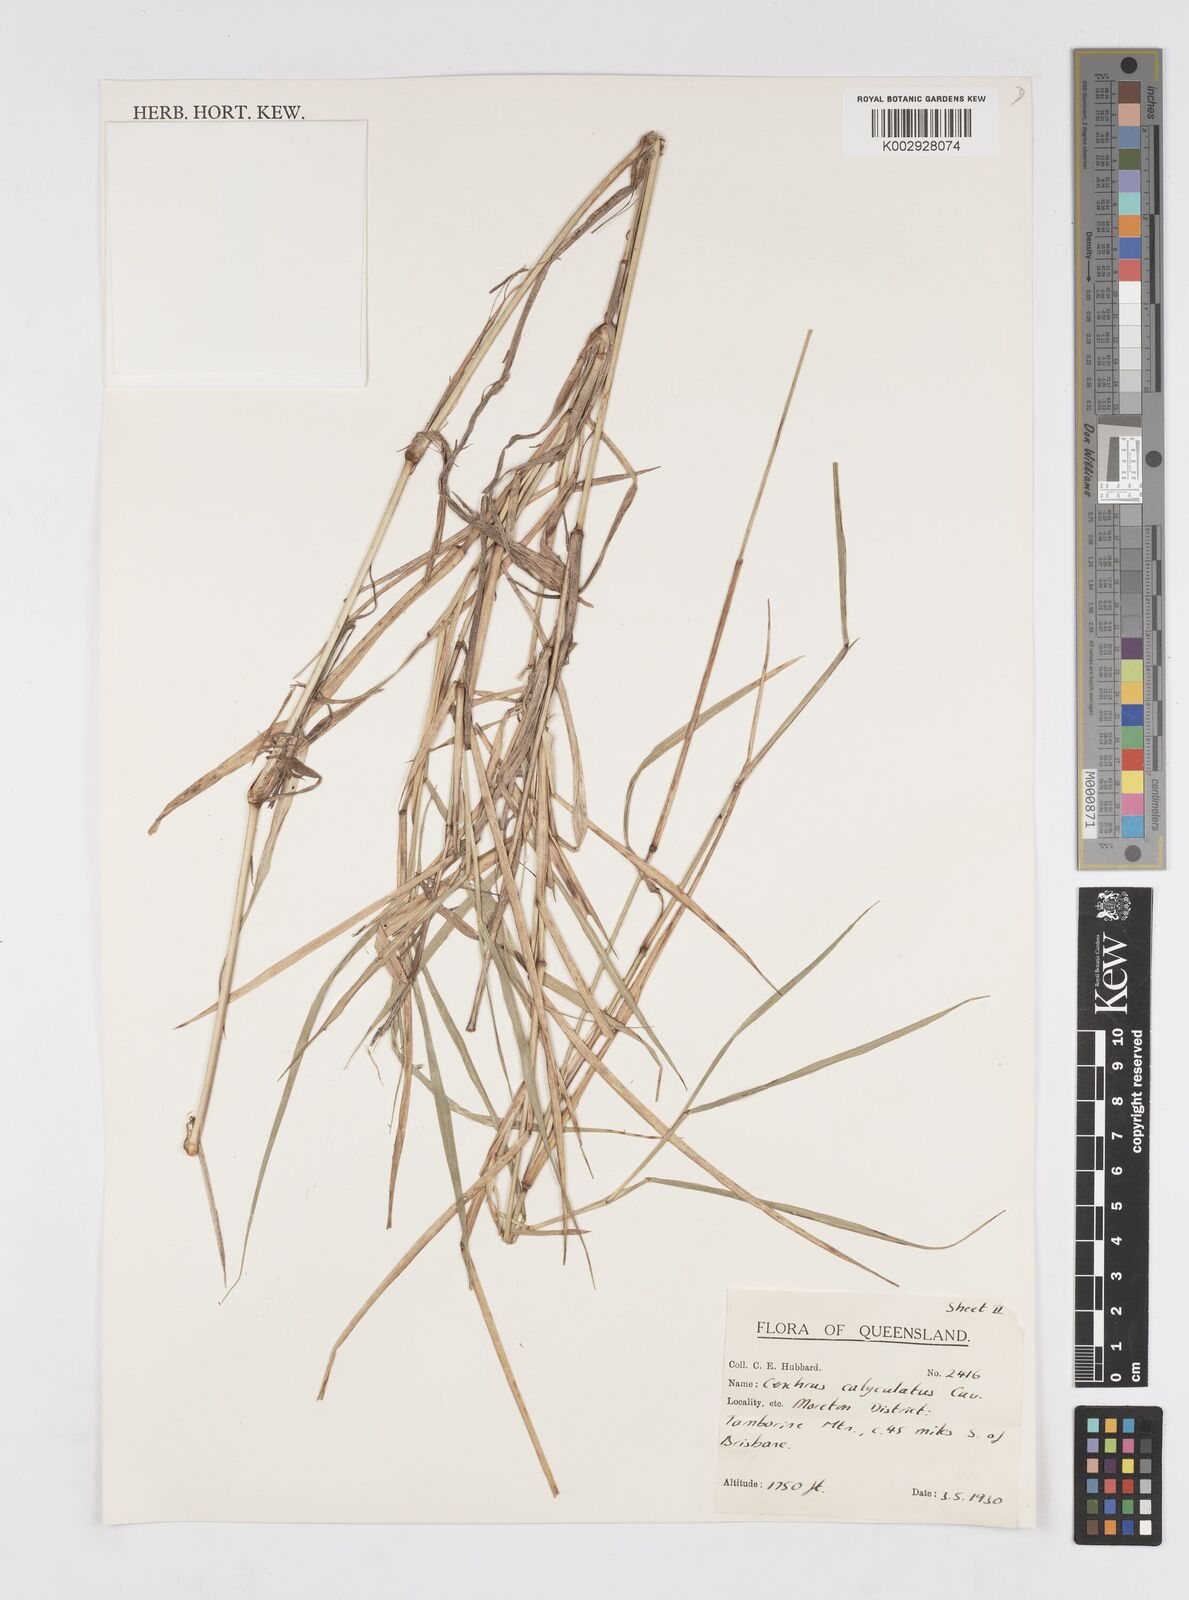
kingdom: Plantae
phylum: Tracheophyta
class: Liliopsida
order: Poales
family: Poaceae
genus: Cenchrus
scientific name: Cenchrus caliculatus
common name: Large bur grass
